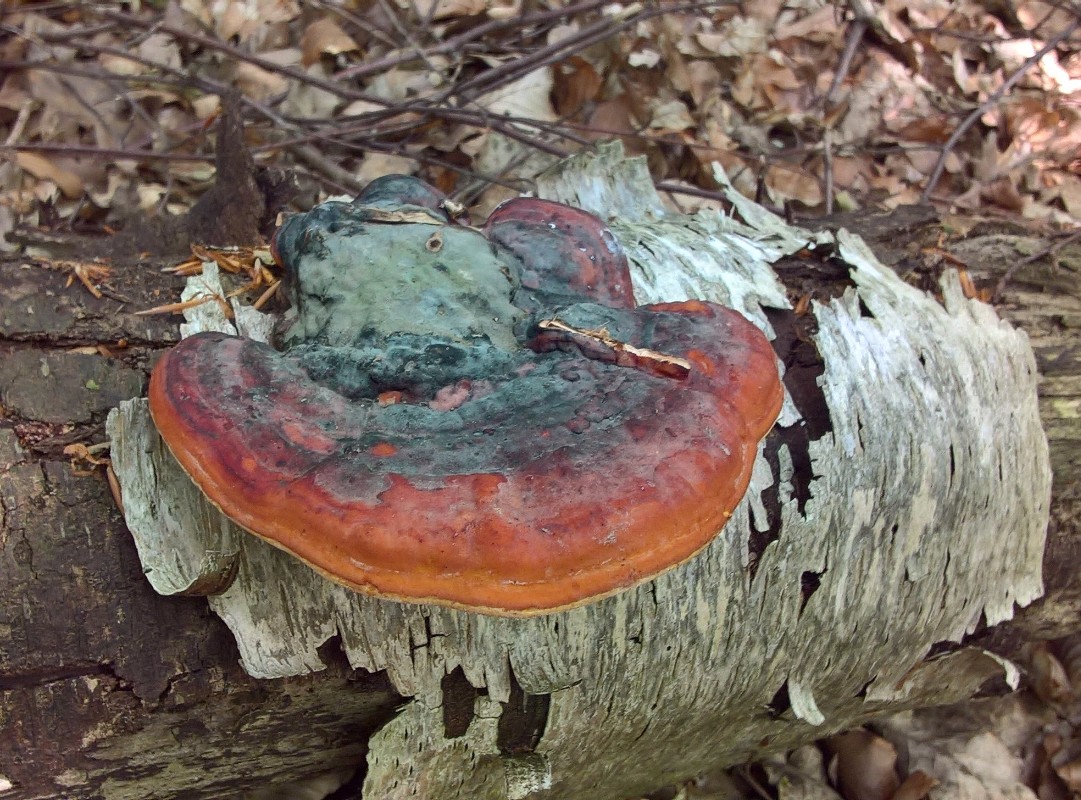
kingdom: Fungi
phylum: Basidiomycota
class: Agaricomycetes
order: Polyporales
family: Fomitopsidaceae
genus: Fomitopsis
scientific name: Fomitopsis pinicola
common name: randbæltet hovporesvamp
